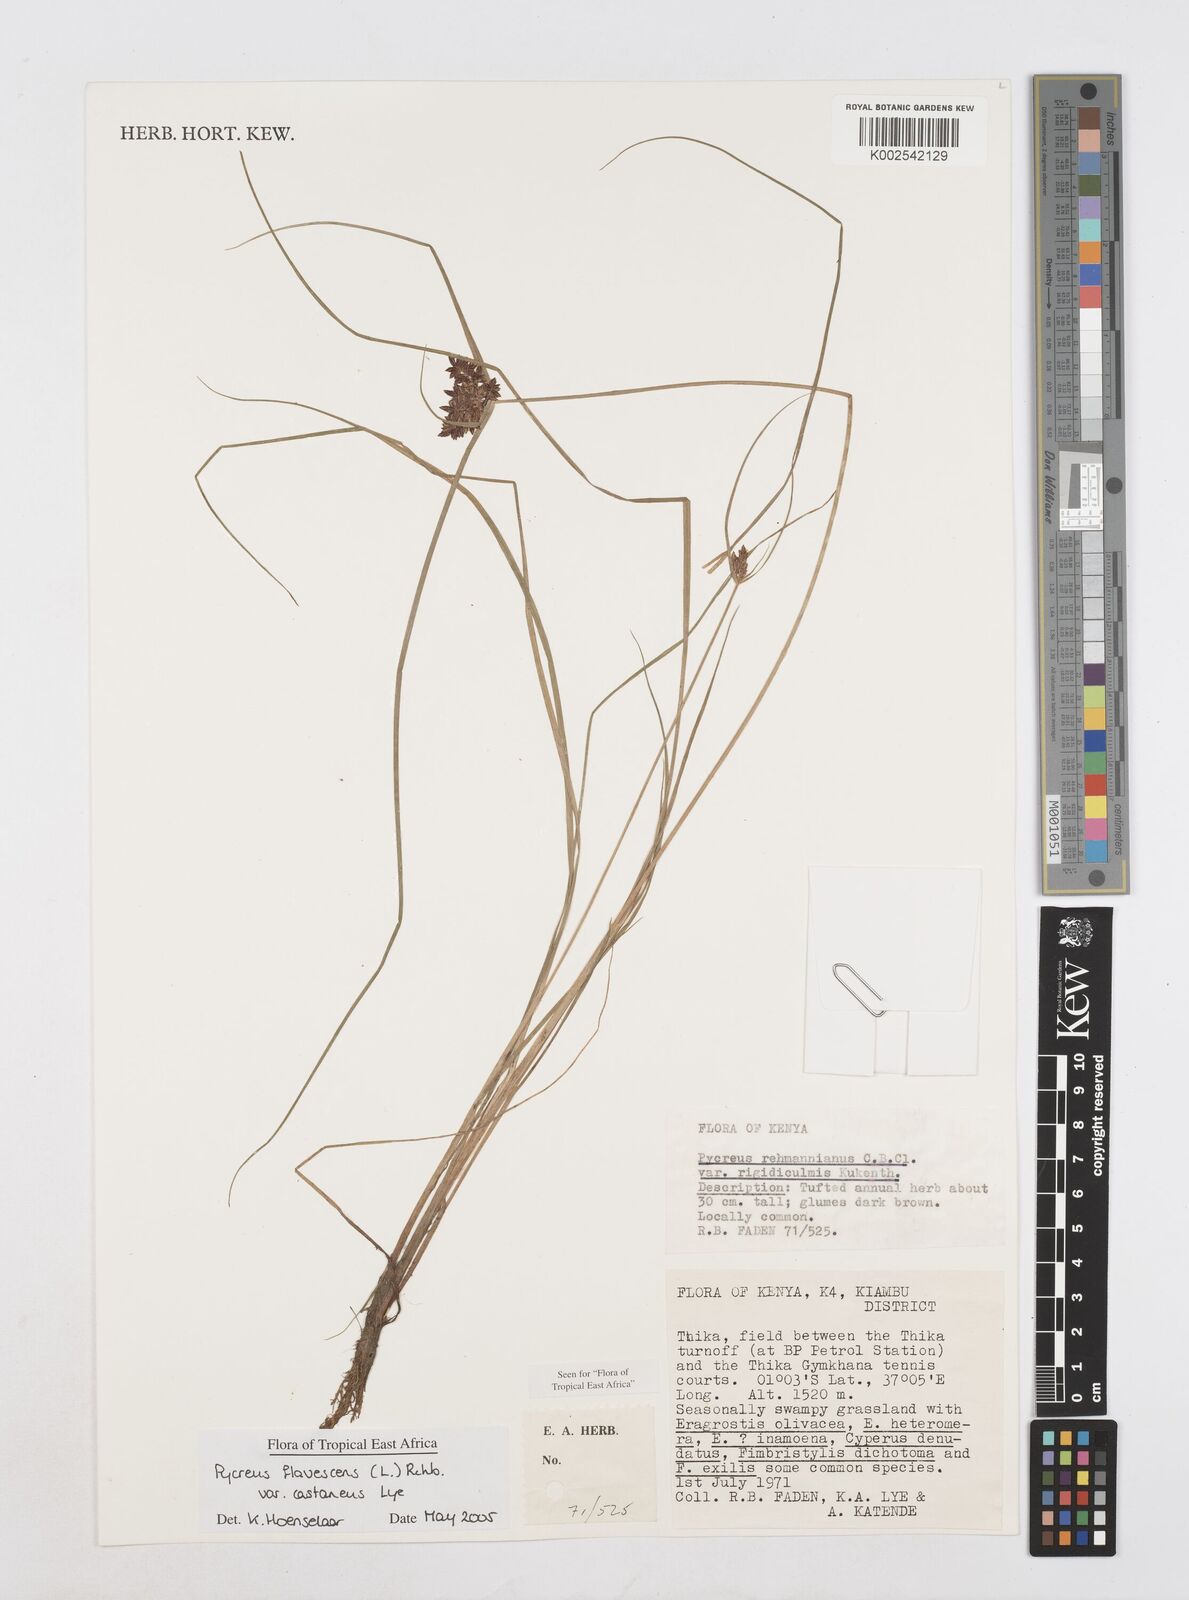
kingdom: Plantae
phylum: Tracheophyta
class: Liliopsida
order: Poales
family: Cyperaceae
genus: Cyperus
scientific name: Cyperus flavescens
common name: Yellow galingale
